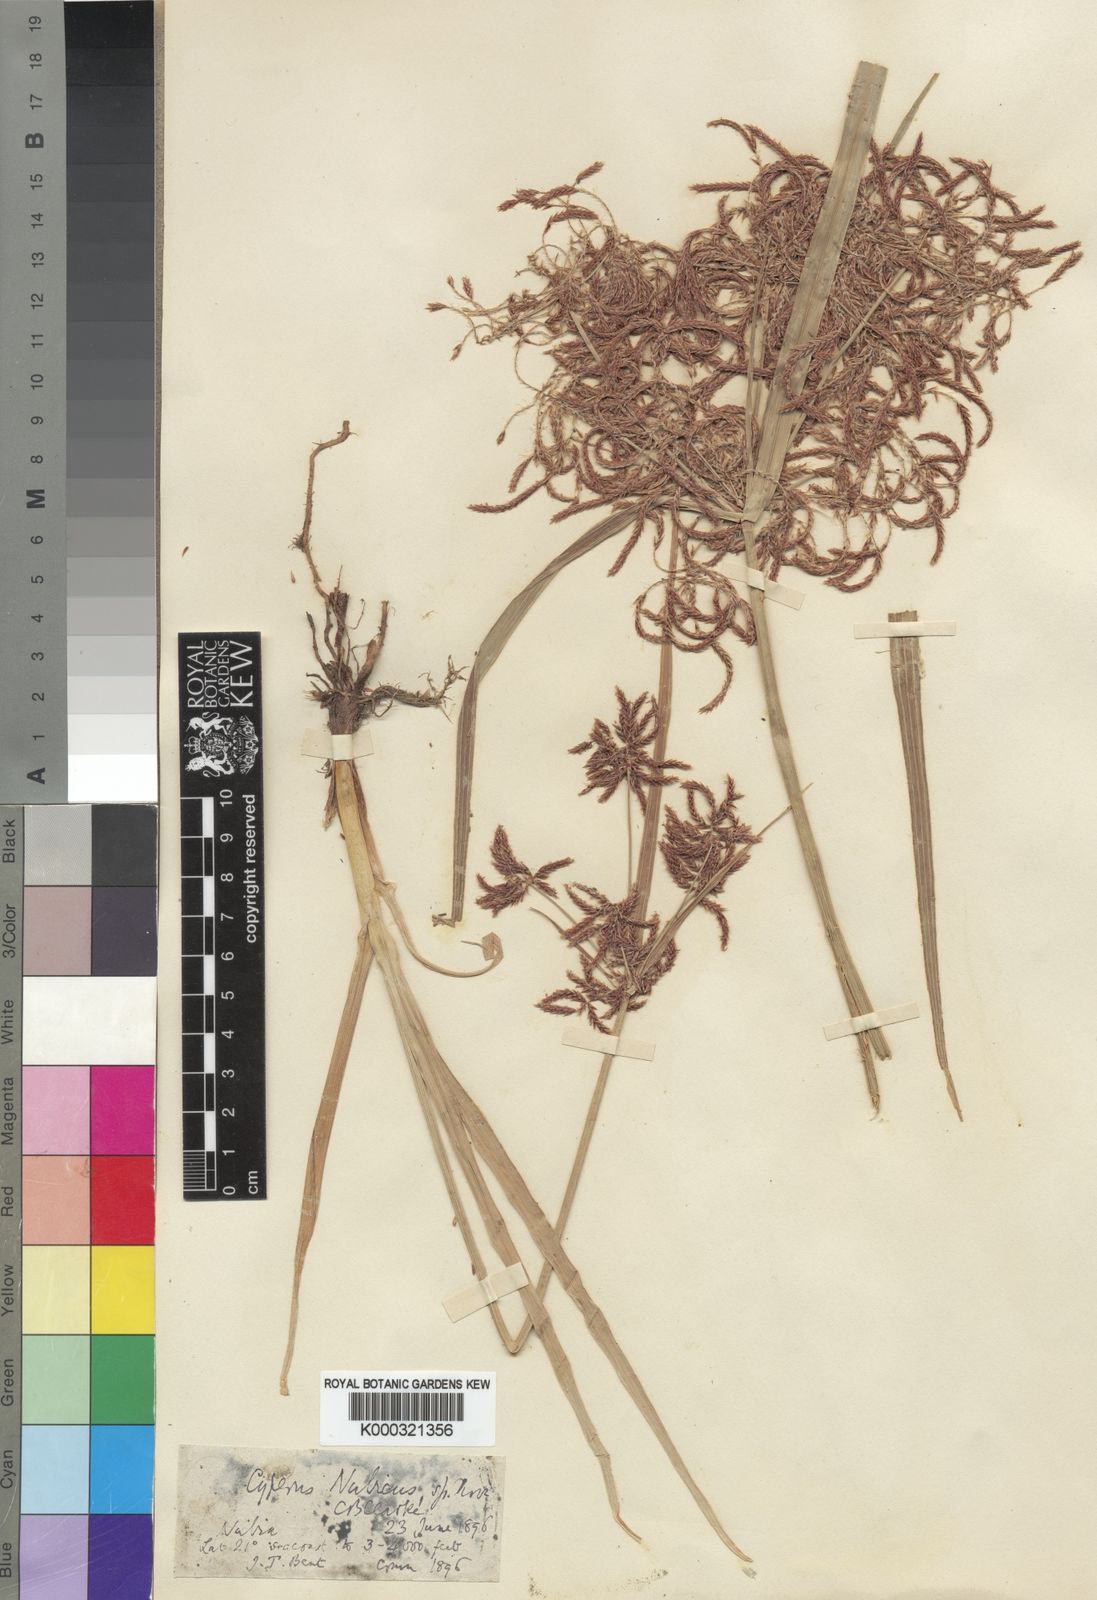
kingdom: Plantae
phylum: Tracheophyta
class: Liliopsida
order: Poales
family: Cyperaceae
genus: Cyperus
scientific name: Cyperus bifax
